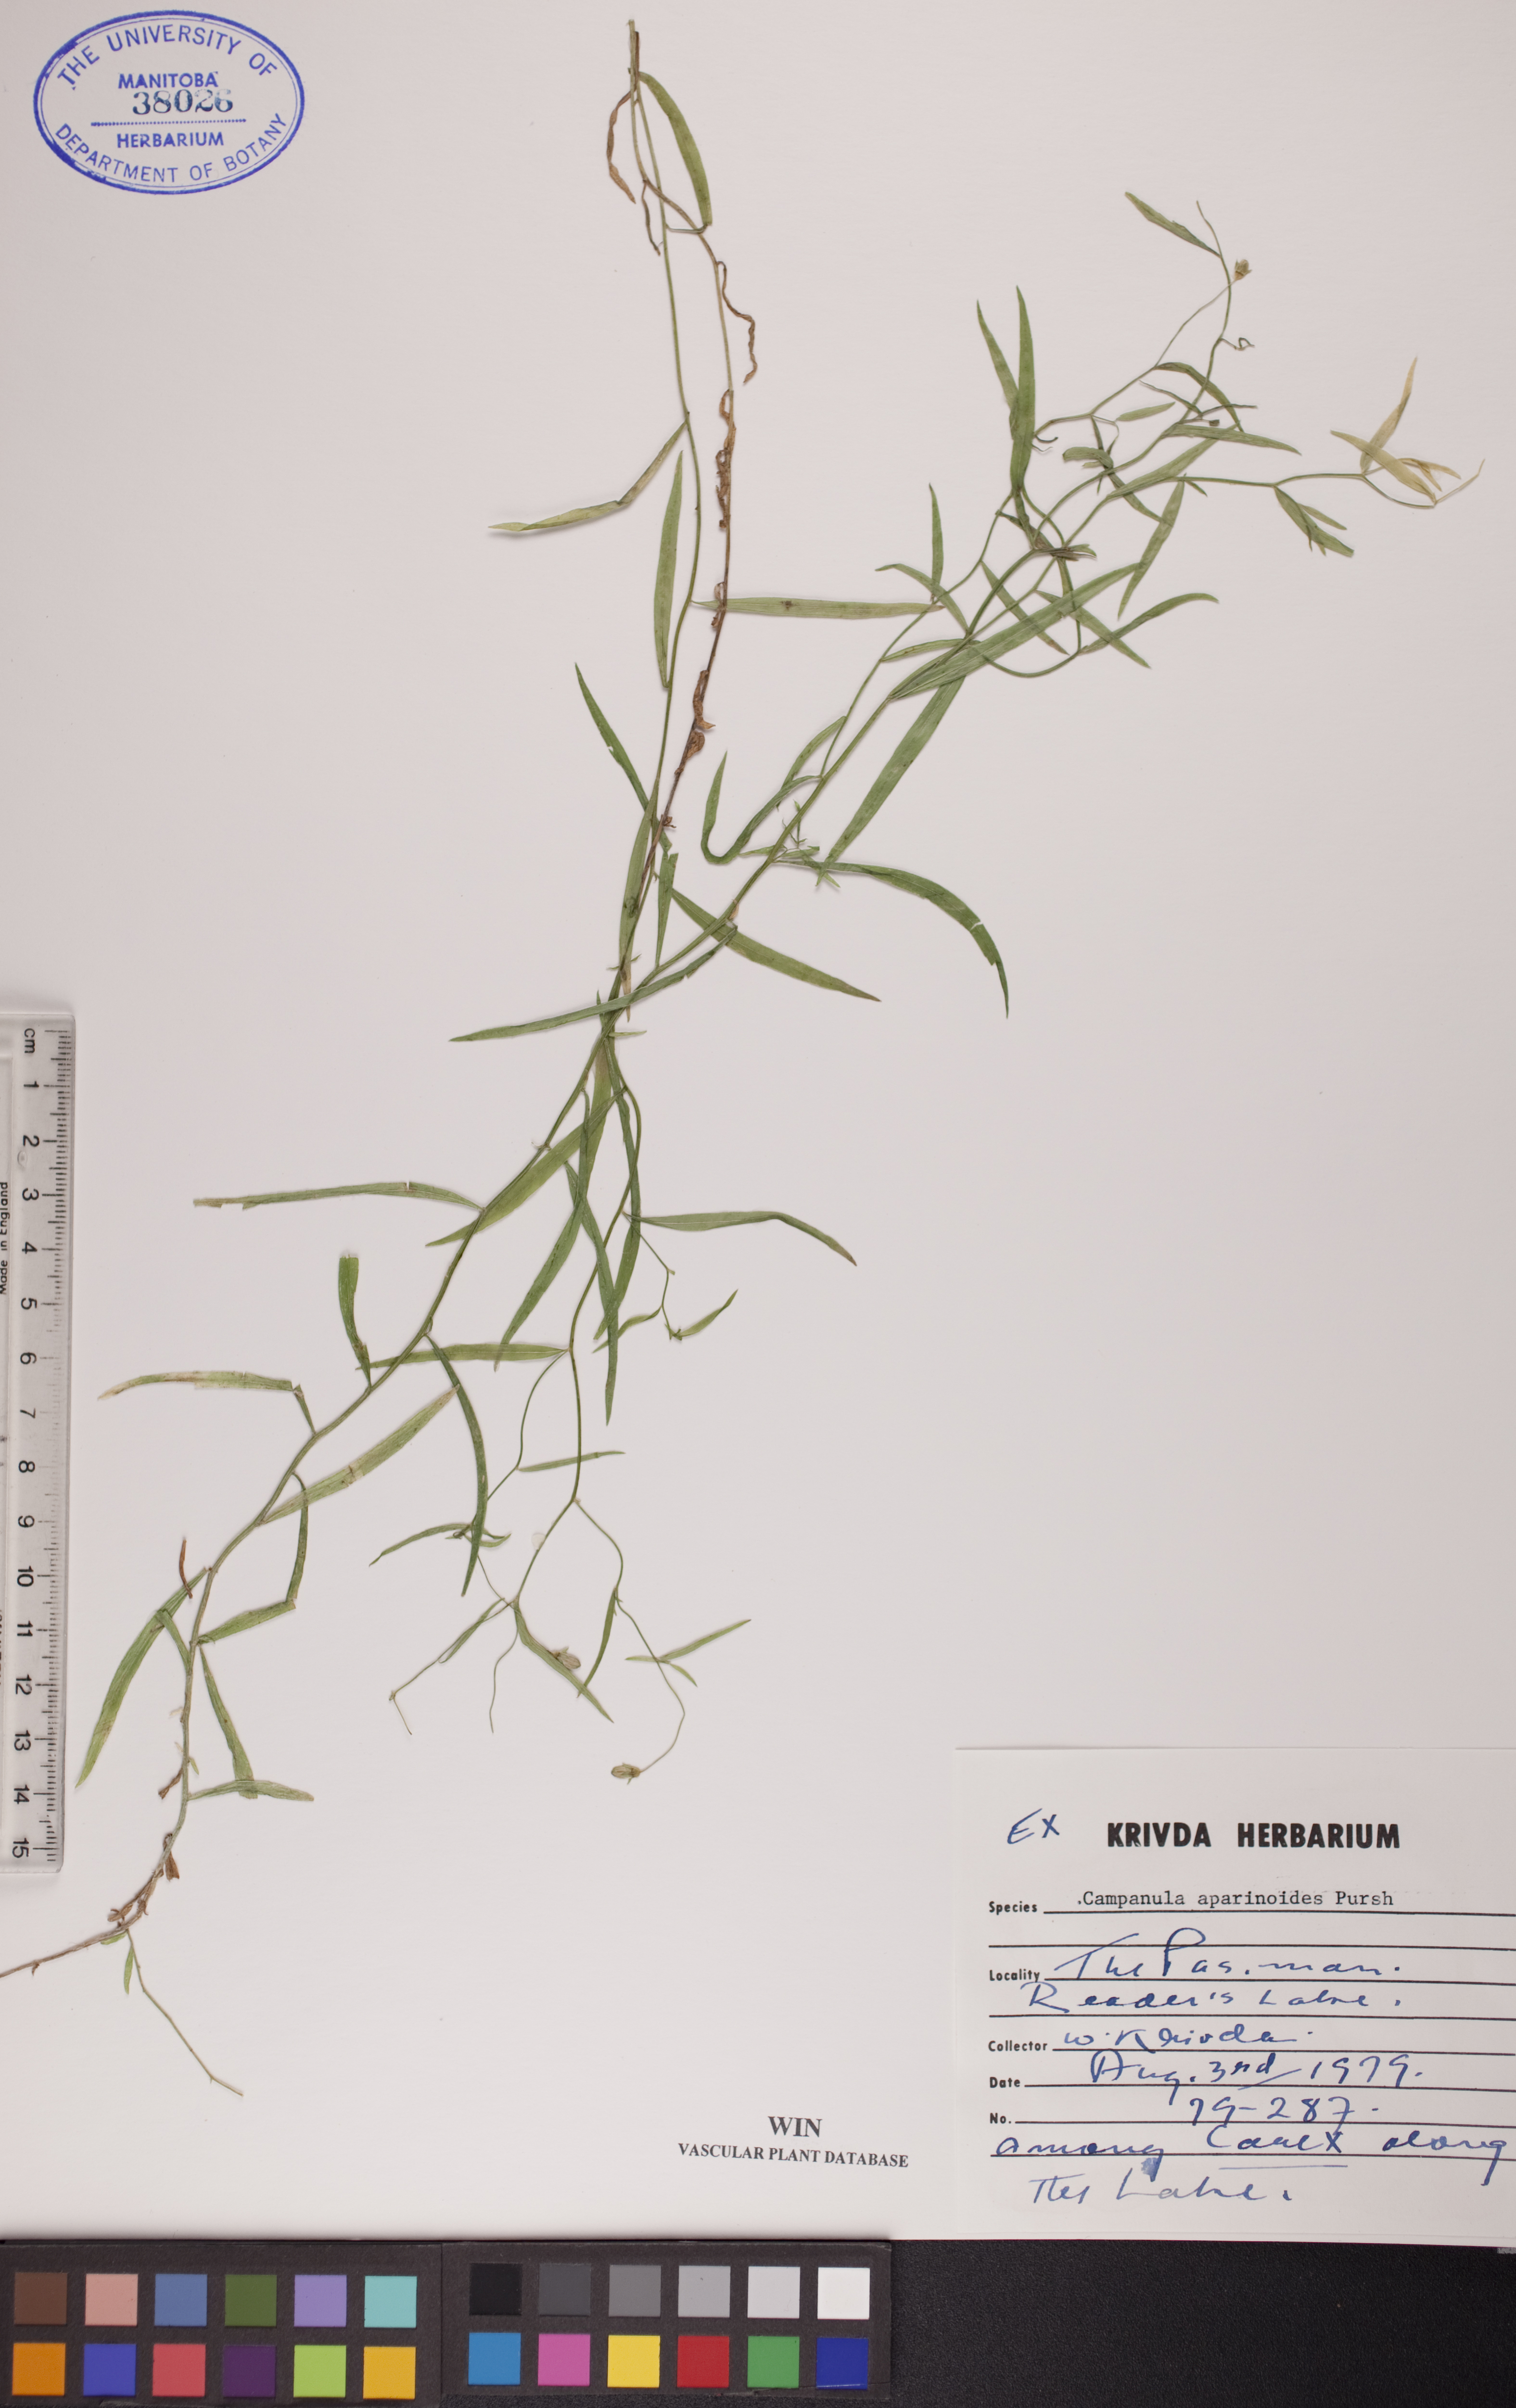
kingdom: Plantae
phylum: Tracheophyta
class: Magnoliopsida
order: Asterales
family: Campanulaceae
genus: Palustricodon
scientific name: Palustricodon aparinoides
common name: Bedstraw bellflower
